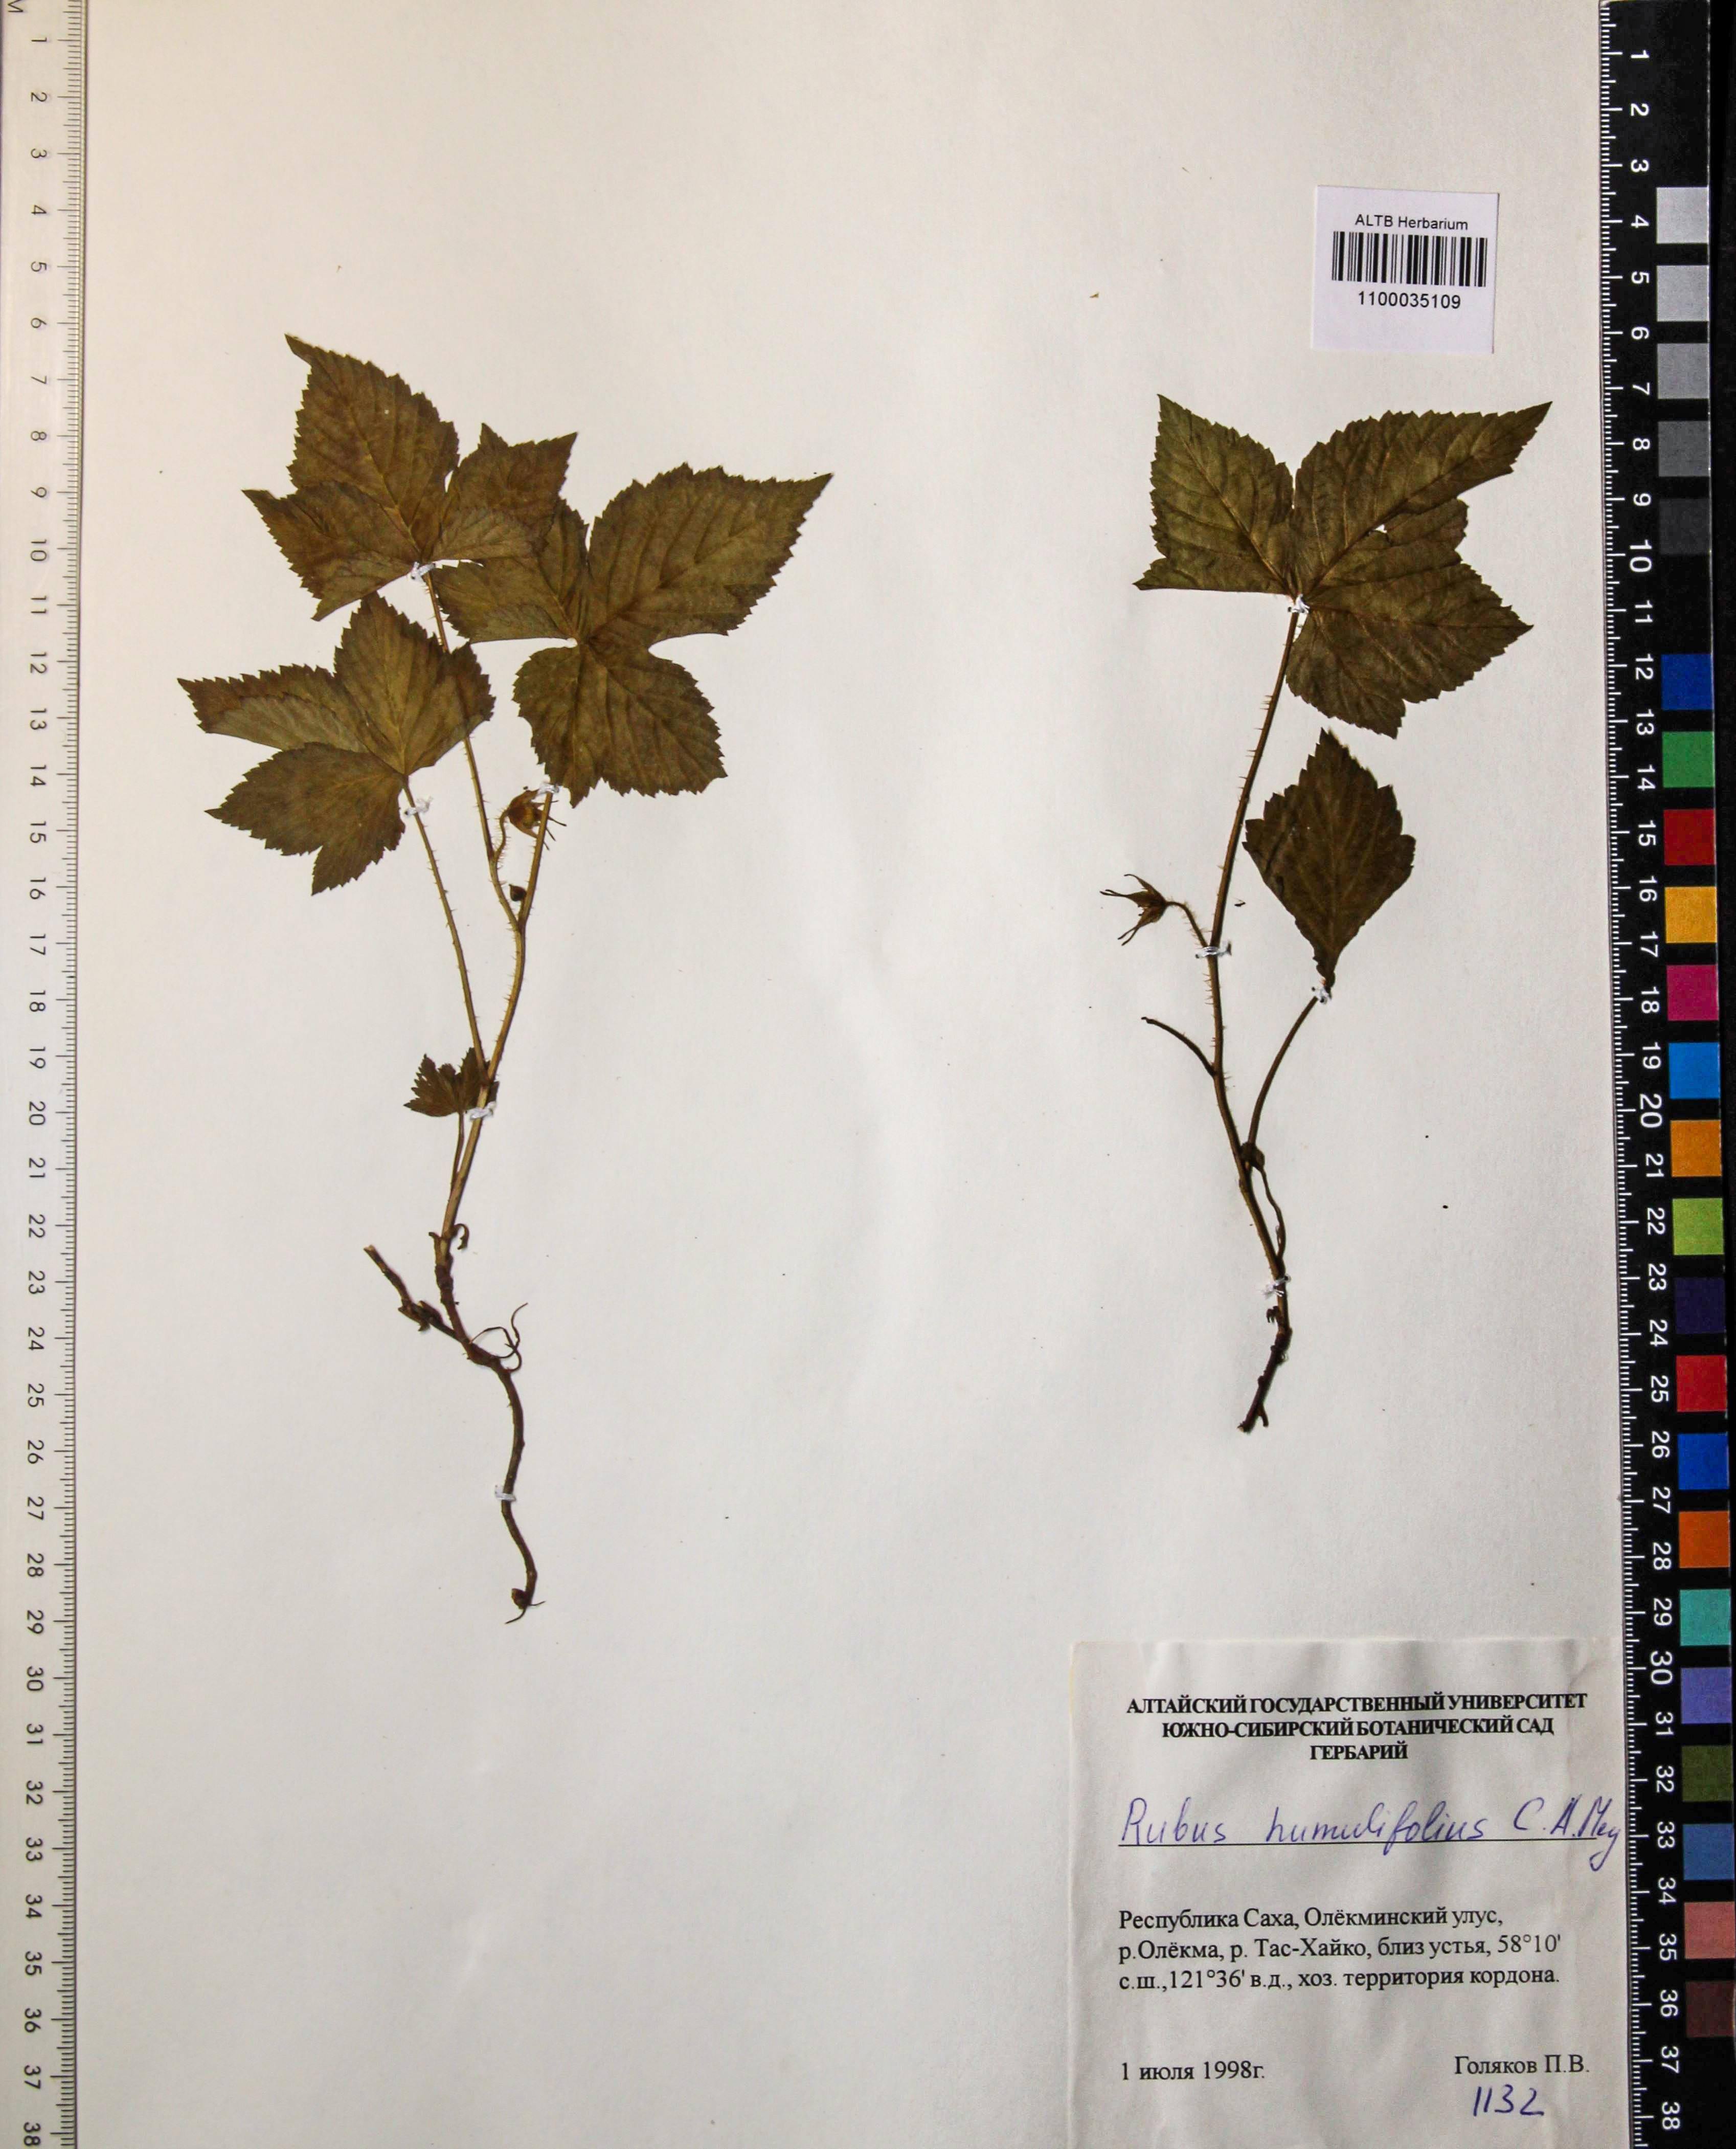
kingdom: Plantae
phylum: Tracheophyta
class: Magnoliopsida
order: Rosales
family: Rosaceae
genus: Rubus
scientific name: Rubus humilifolius
